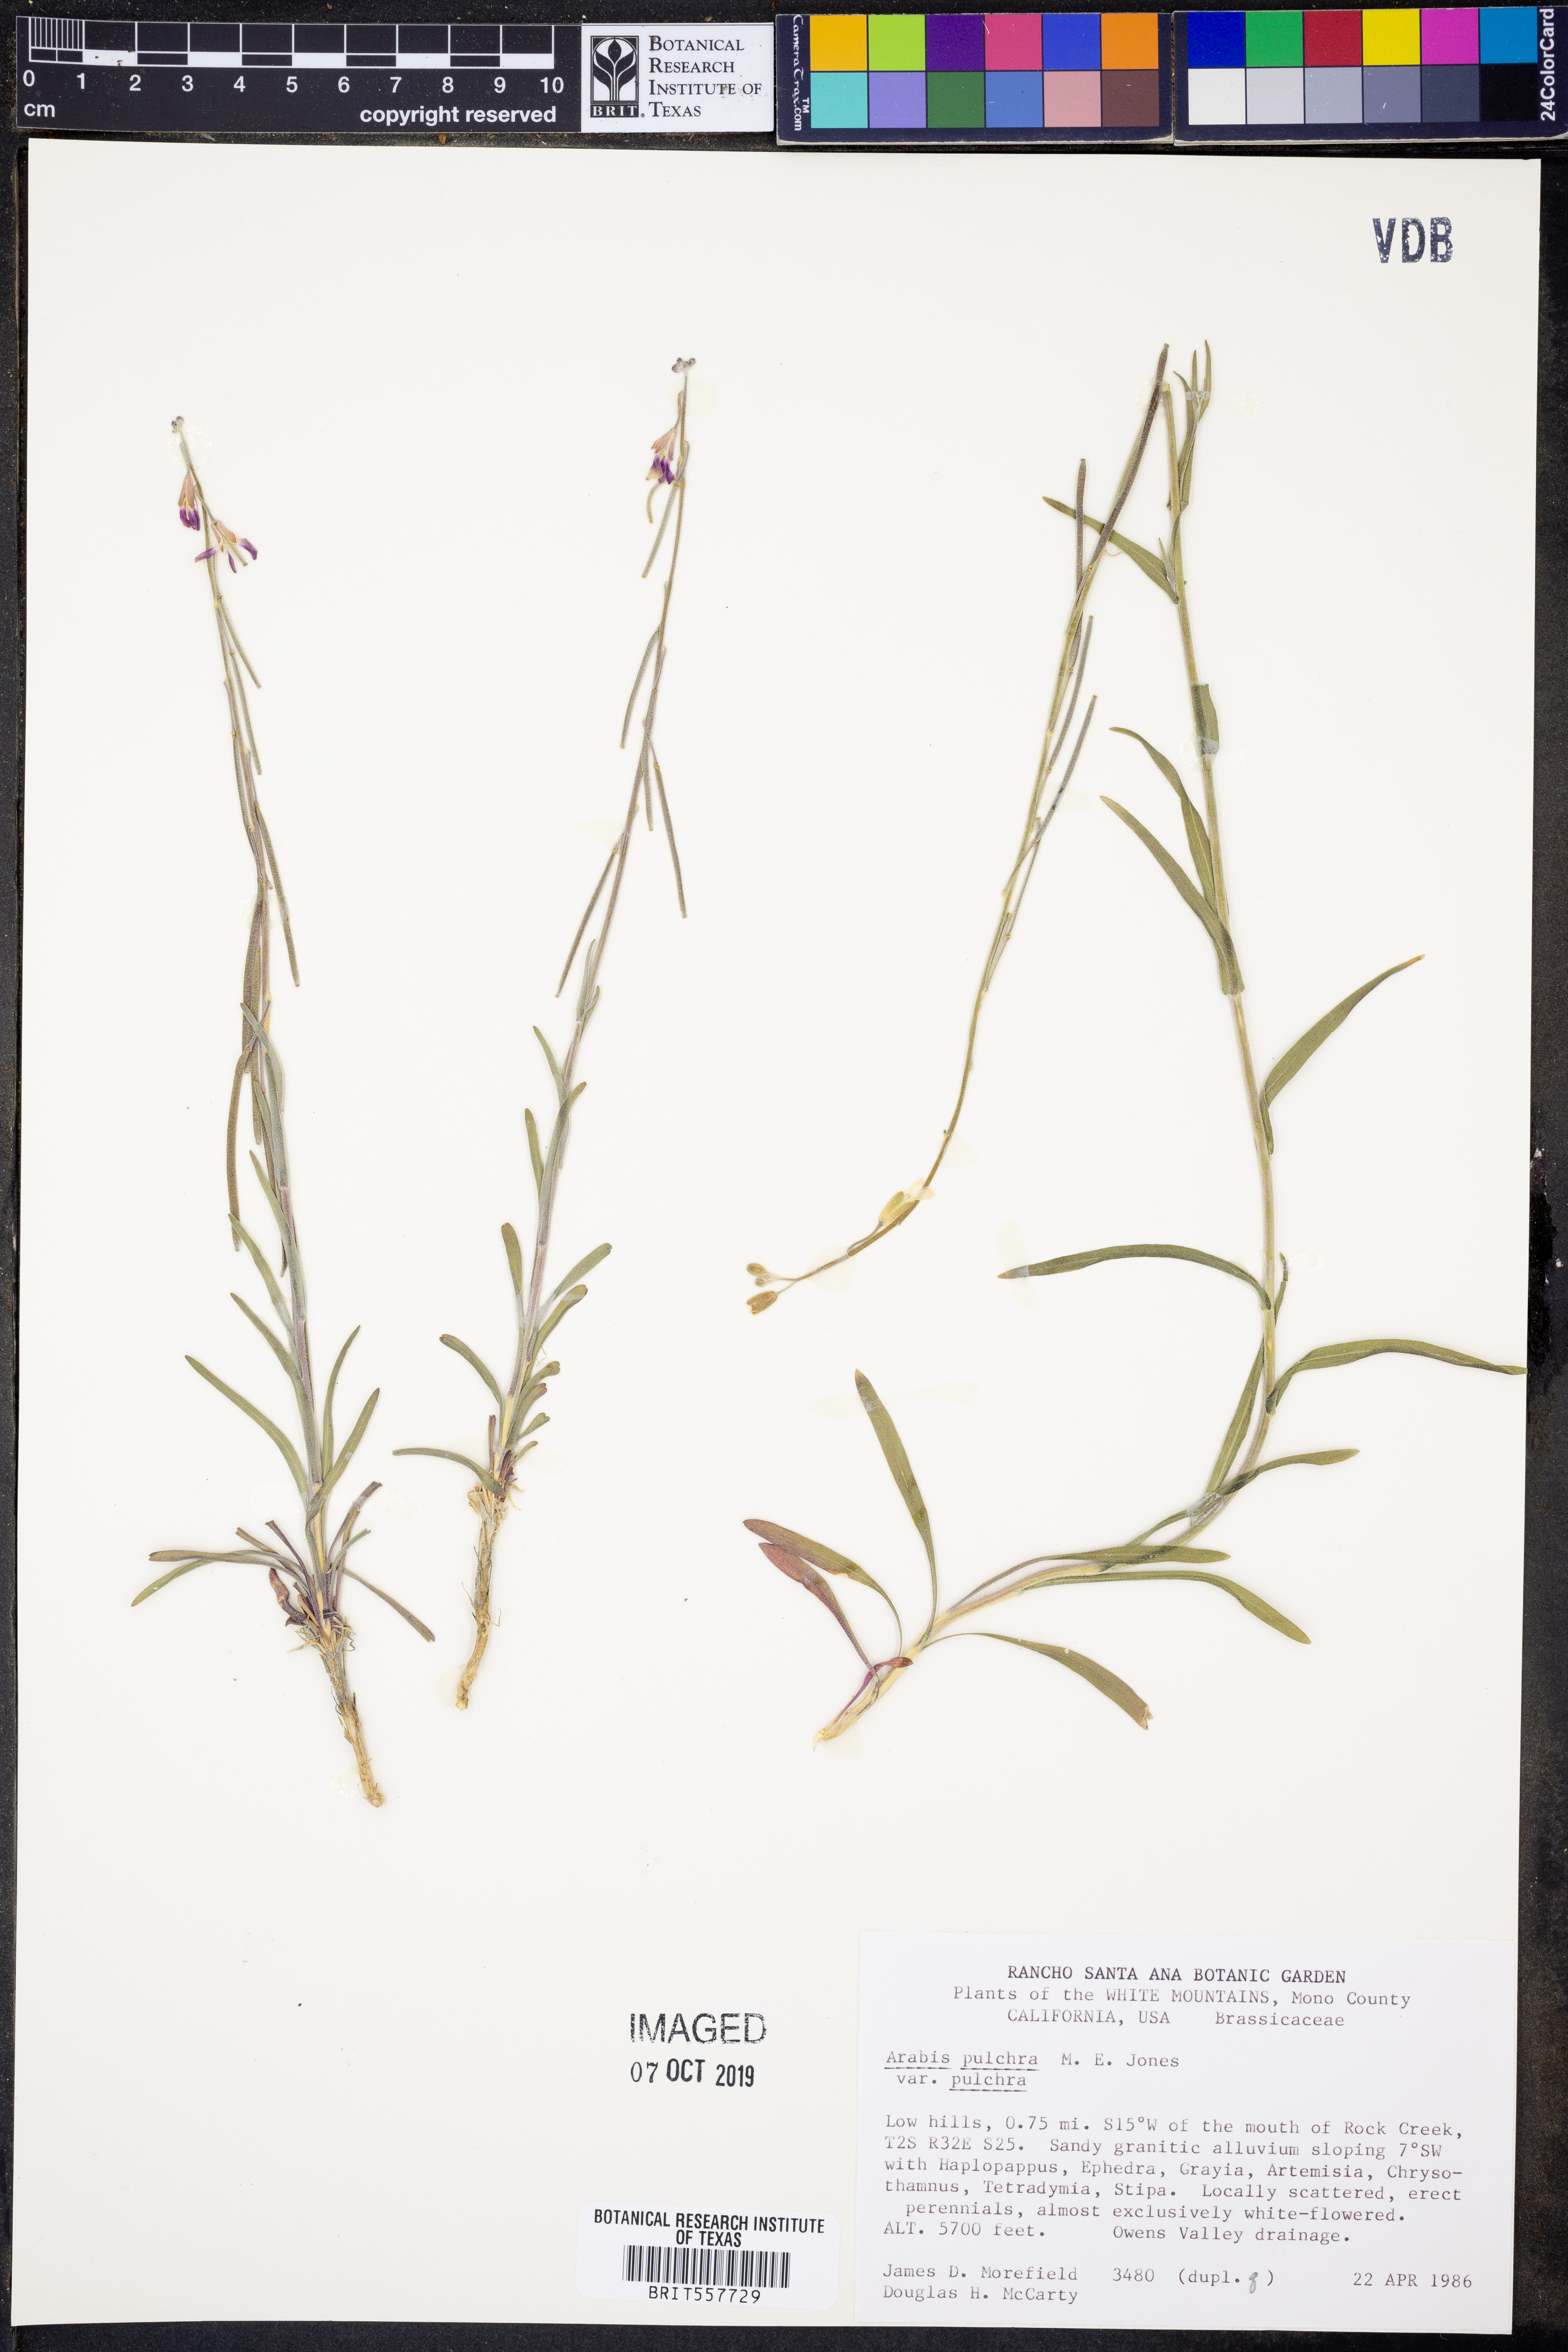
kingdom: Plantae
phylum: Tracheophyta
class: Magnoliopsida
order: Brassicales
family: Brassicaceae
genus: Boechera
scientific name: Boechera pulchra
